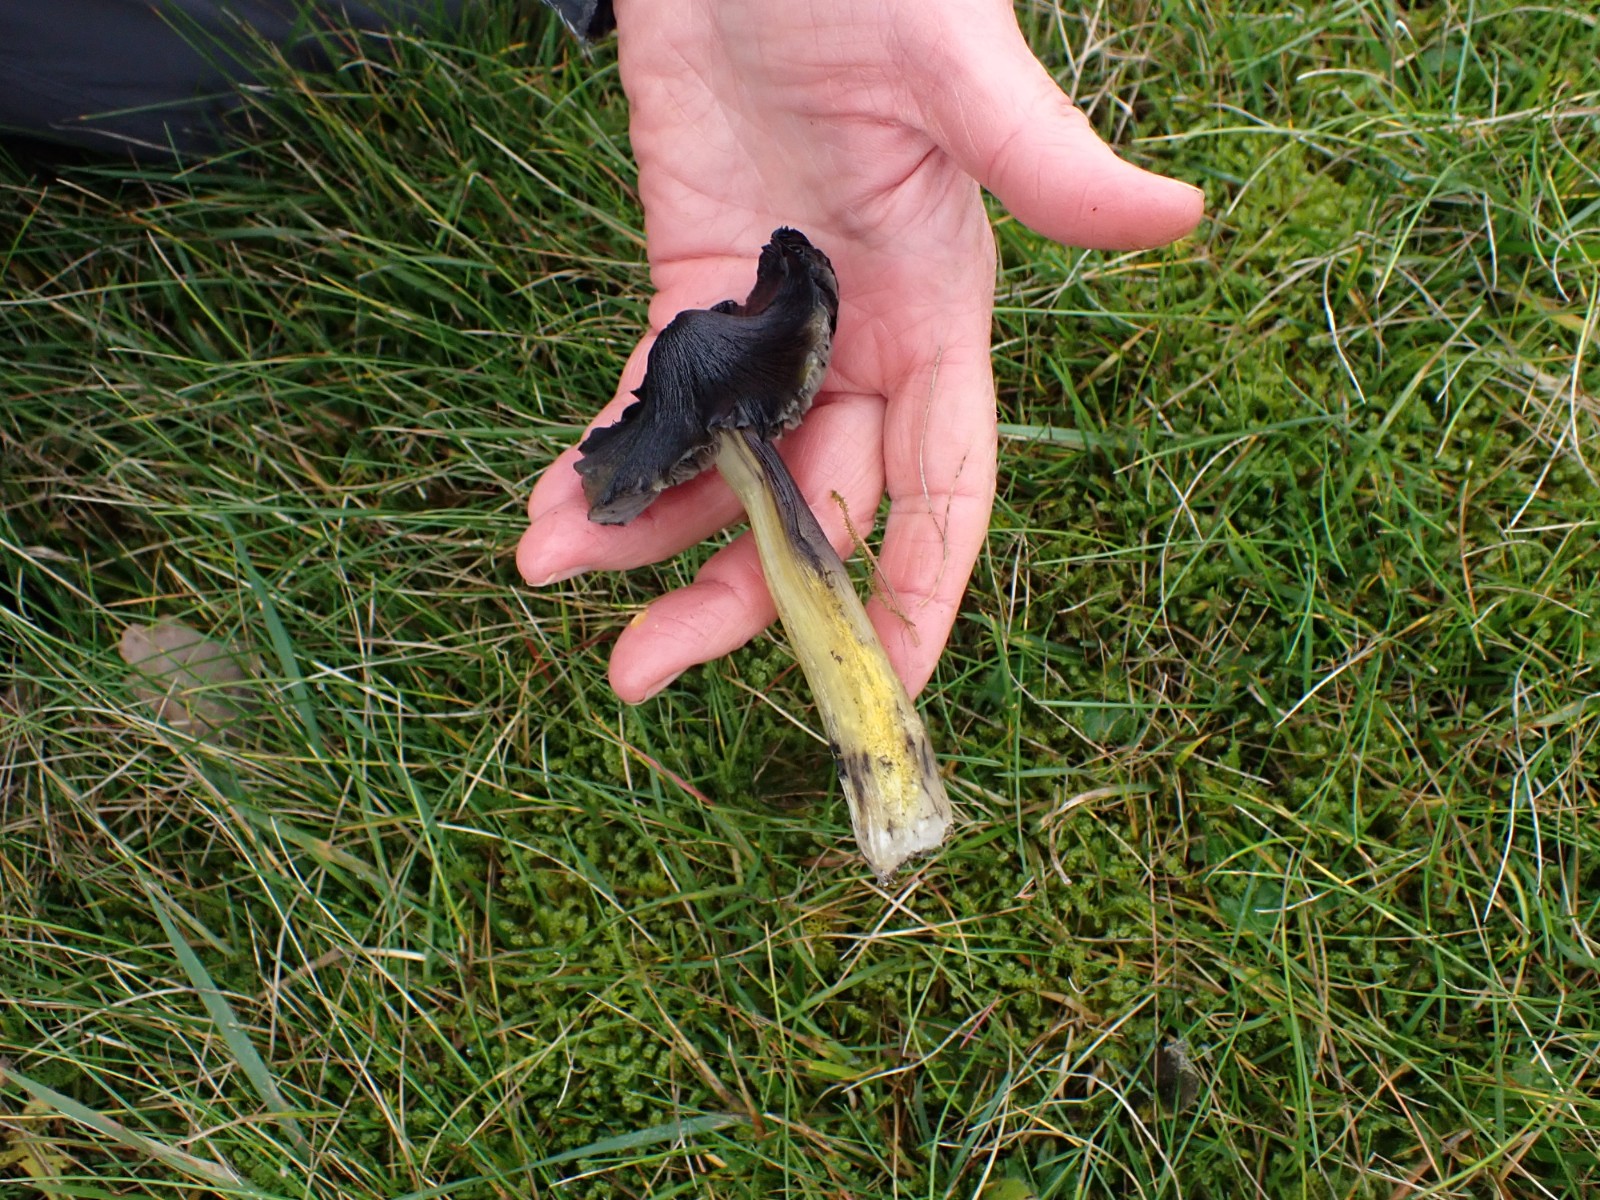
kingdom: Fungi
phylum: Basidiomycota
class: Agaricomycetes
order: Agaricales
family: Hygrophoraceae
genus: Hygrocybe
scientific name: Hygrocybe conica
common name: kegle-vokshat
